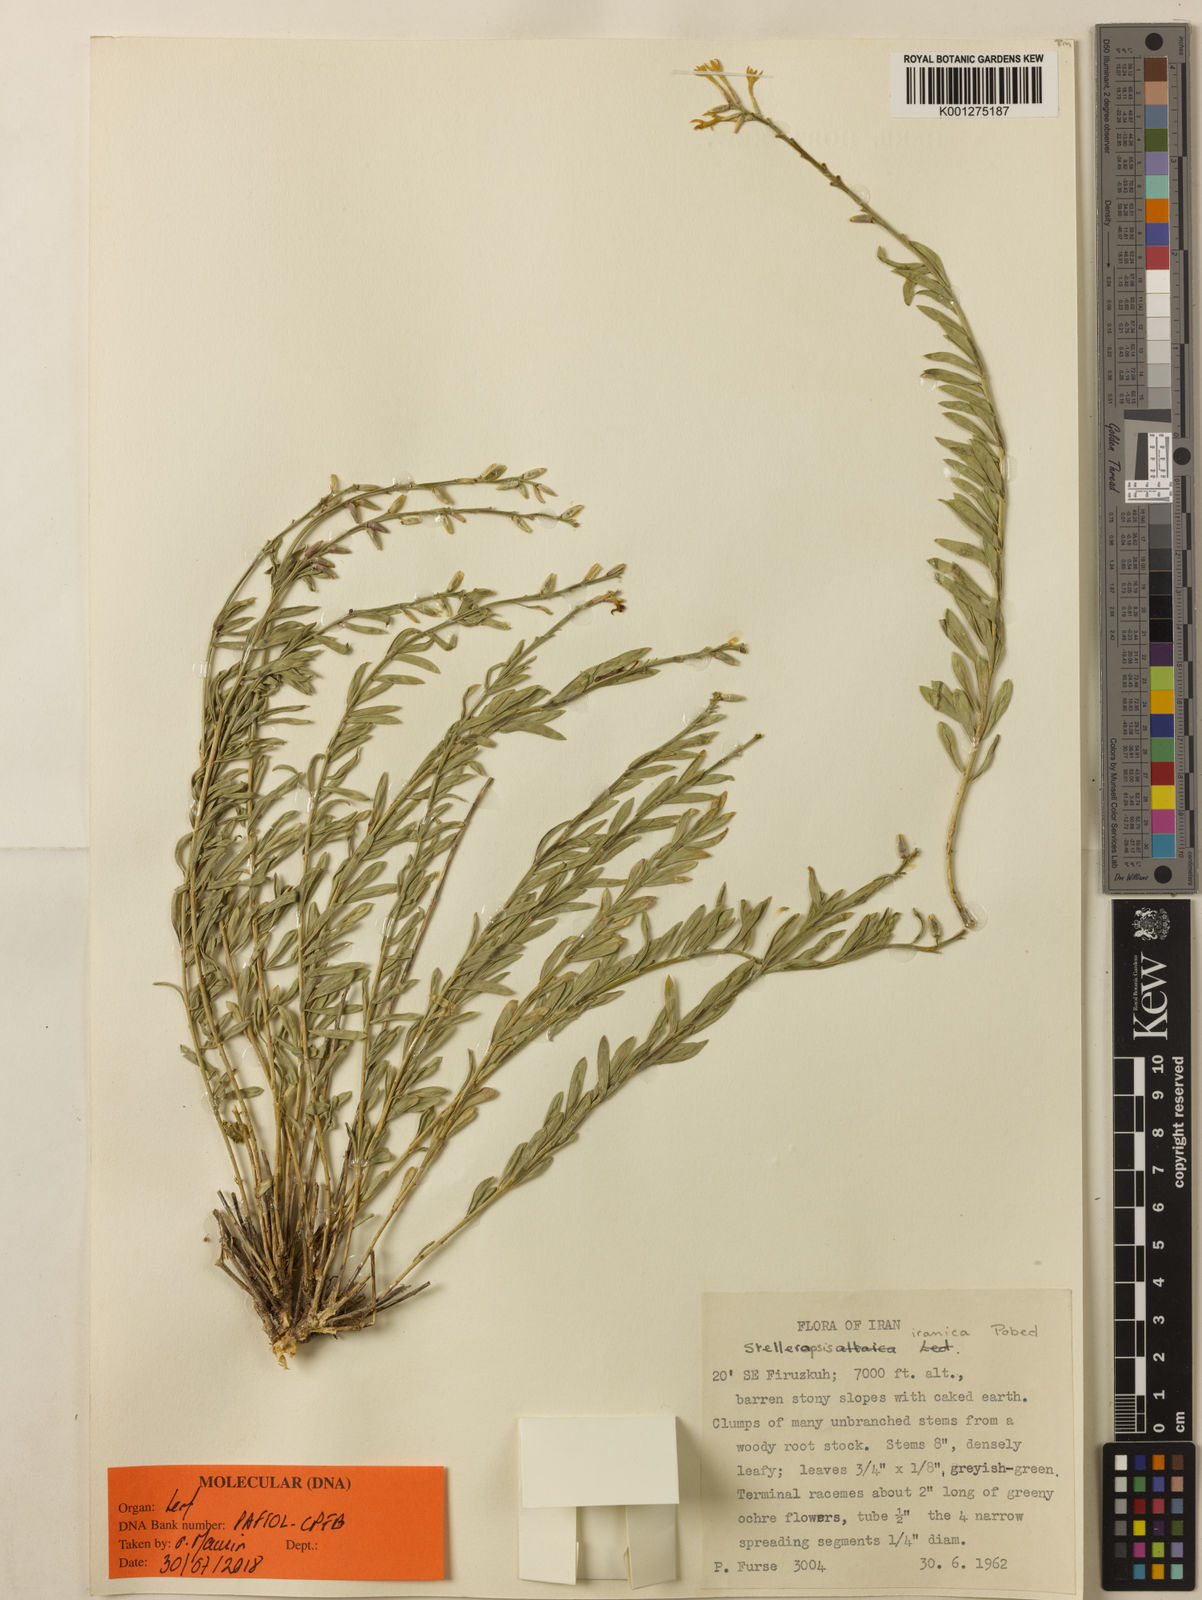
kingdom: Plantae
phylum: Tracheophyta
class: Magnoliopsida
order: Malvales
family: Thymelaeaceae
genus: Diarthron
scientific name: Diarthron iranicum
